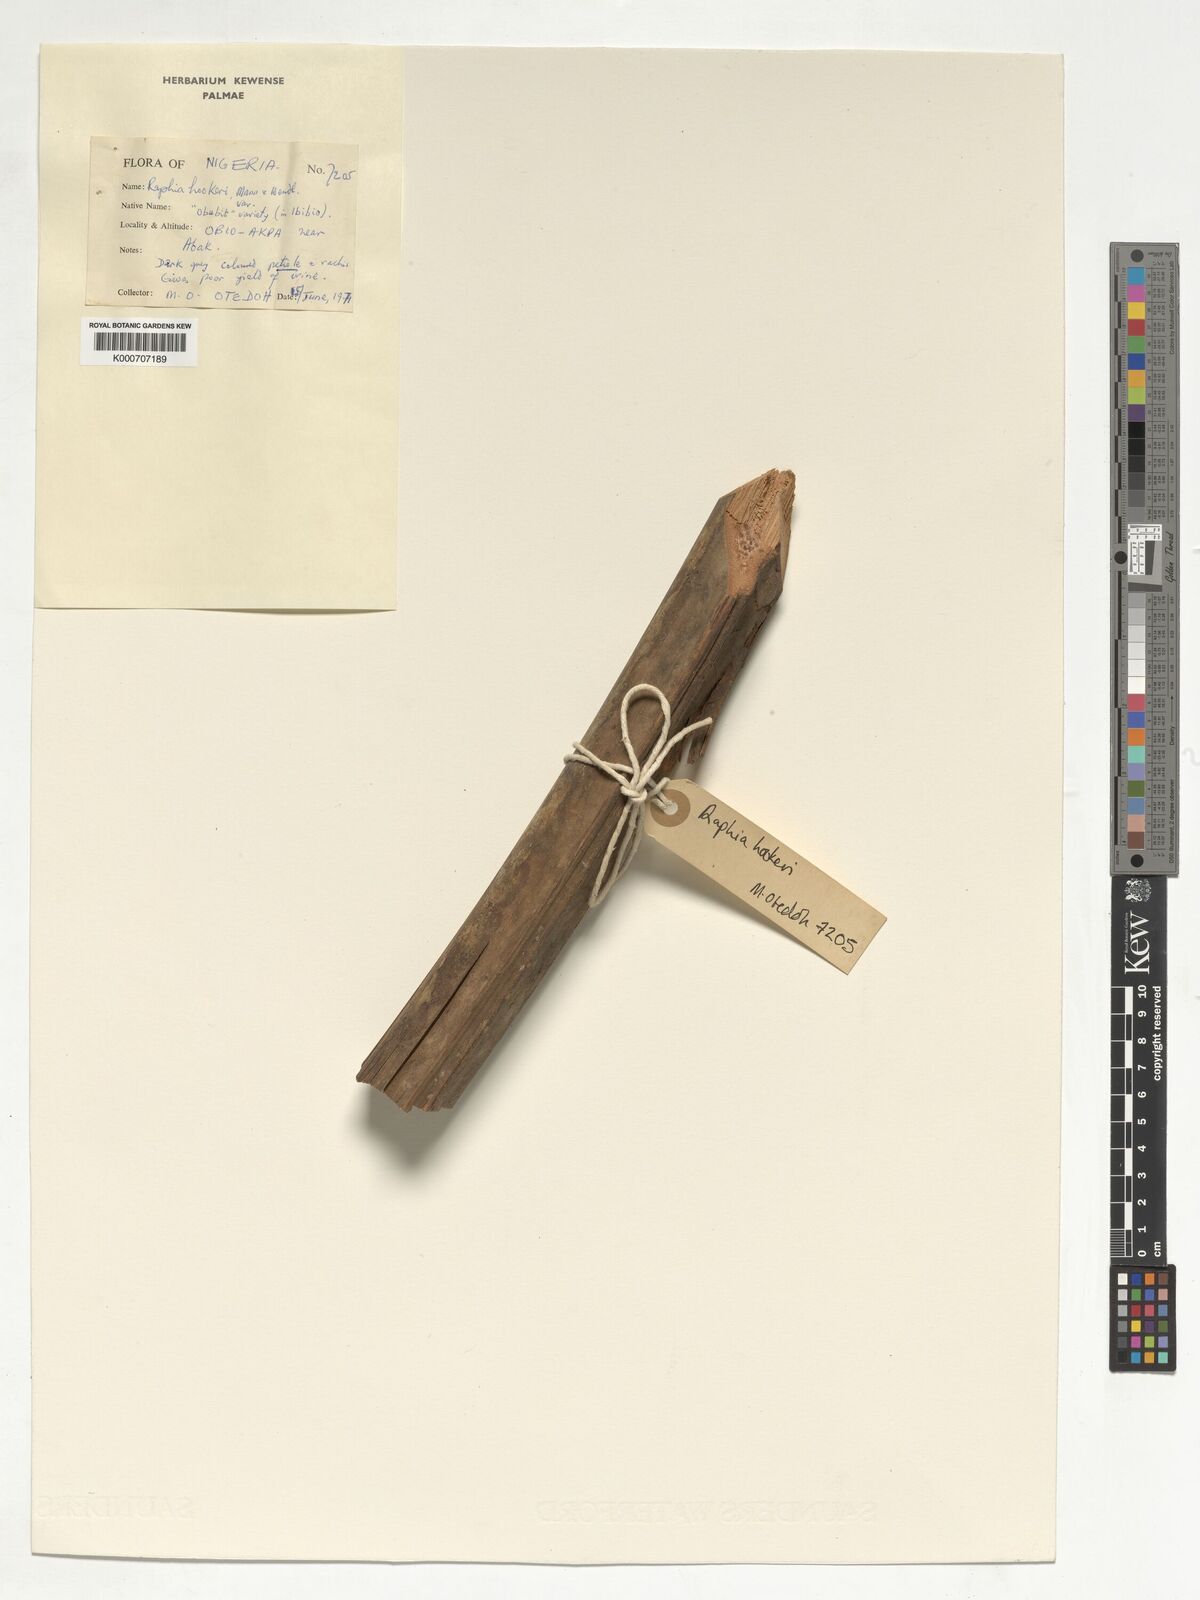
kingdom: Plantae
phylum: Tracheophyta
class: Liliopsida
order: Arecales
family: Arecaceae
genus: Raphia
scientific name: Raphia hookeri
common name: Wine palm
